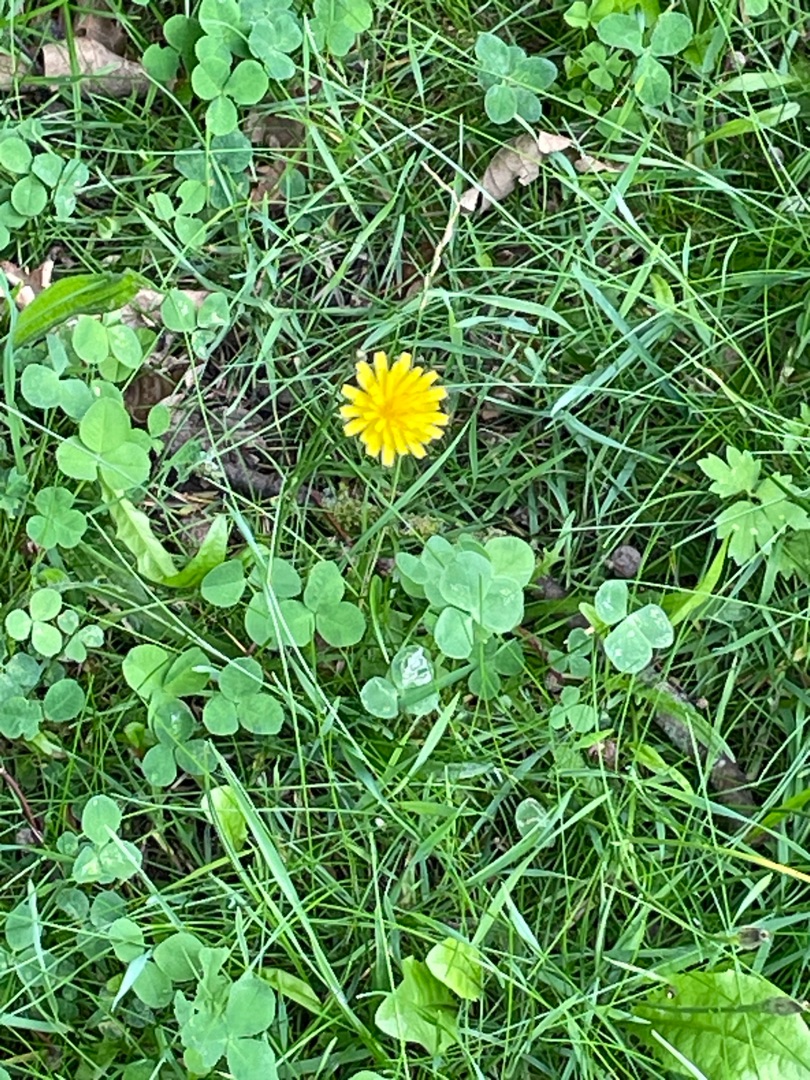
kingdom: Plantae
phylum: Tracheophyta
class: Magnoliopsida
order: Asterales
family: Asteraceae
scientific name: Asteraceae
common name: Kurvblomstfamilien
